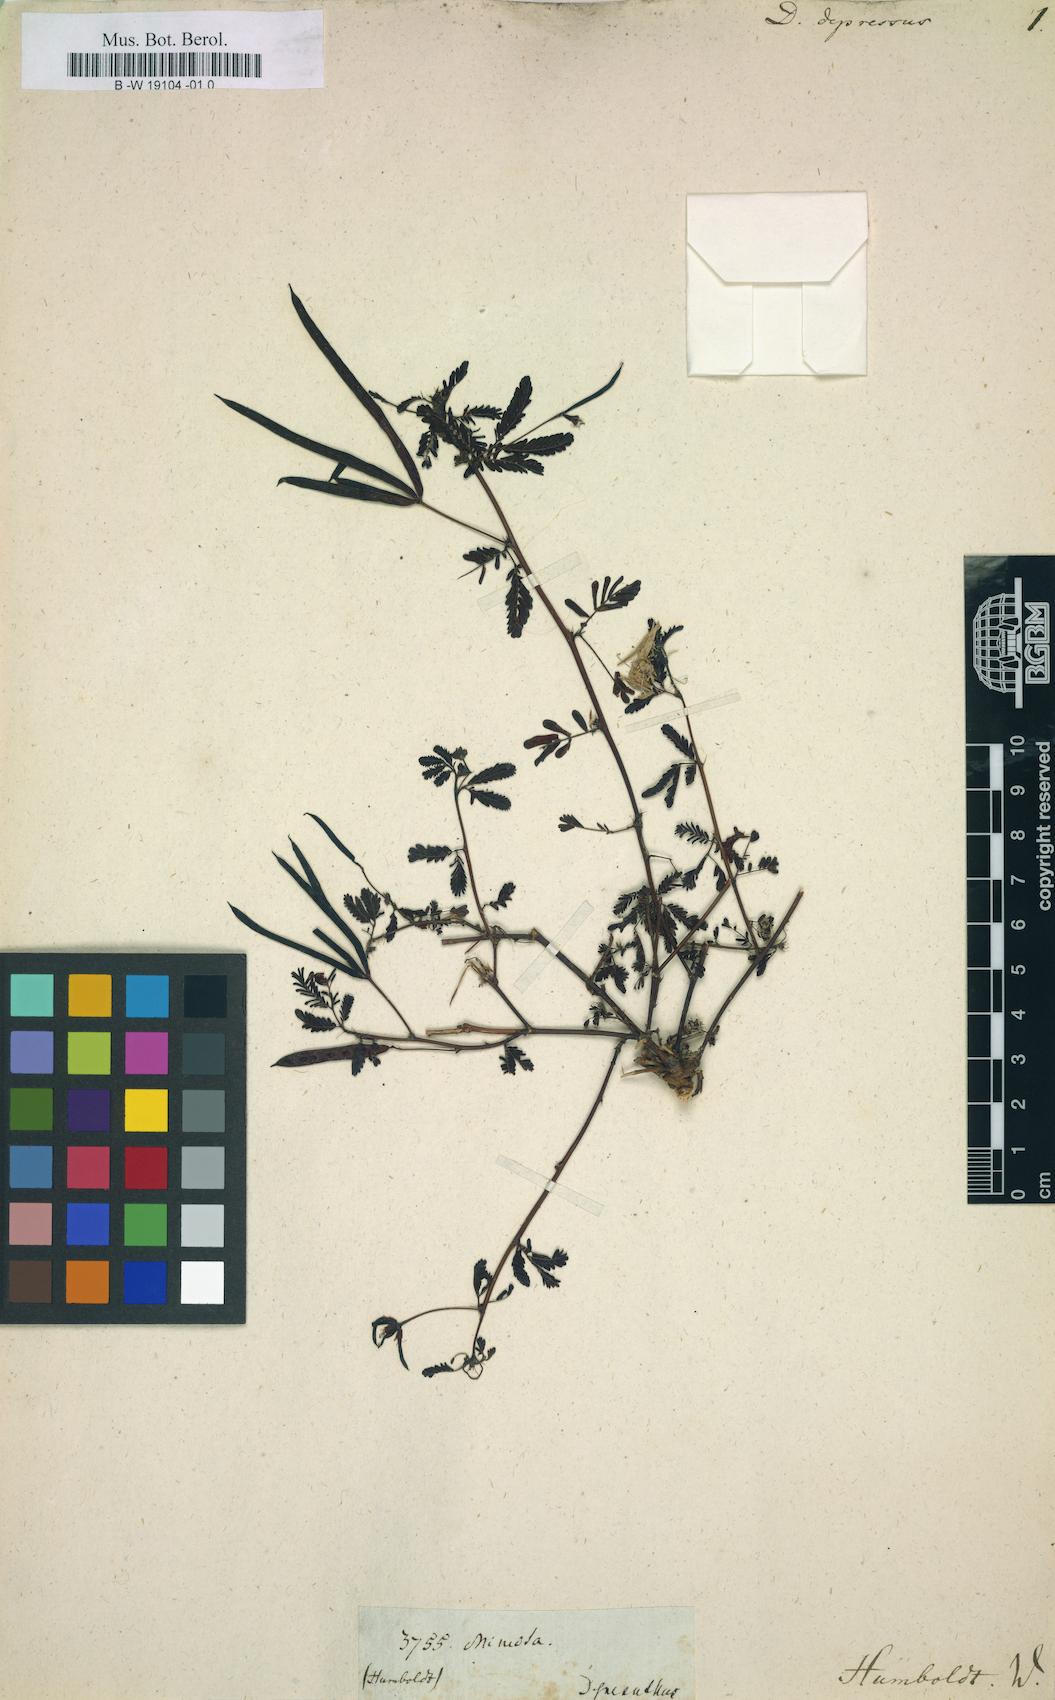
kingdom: Plantae
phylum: Tracheophyta
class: Magnoliopsida
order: Fabales
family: Fabaceae
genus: Desmanthus
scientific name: Desmanthus virgatus
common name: Wild tantan
